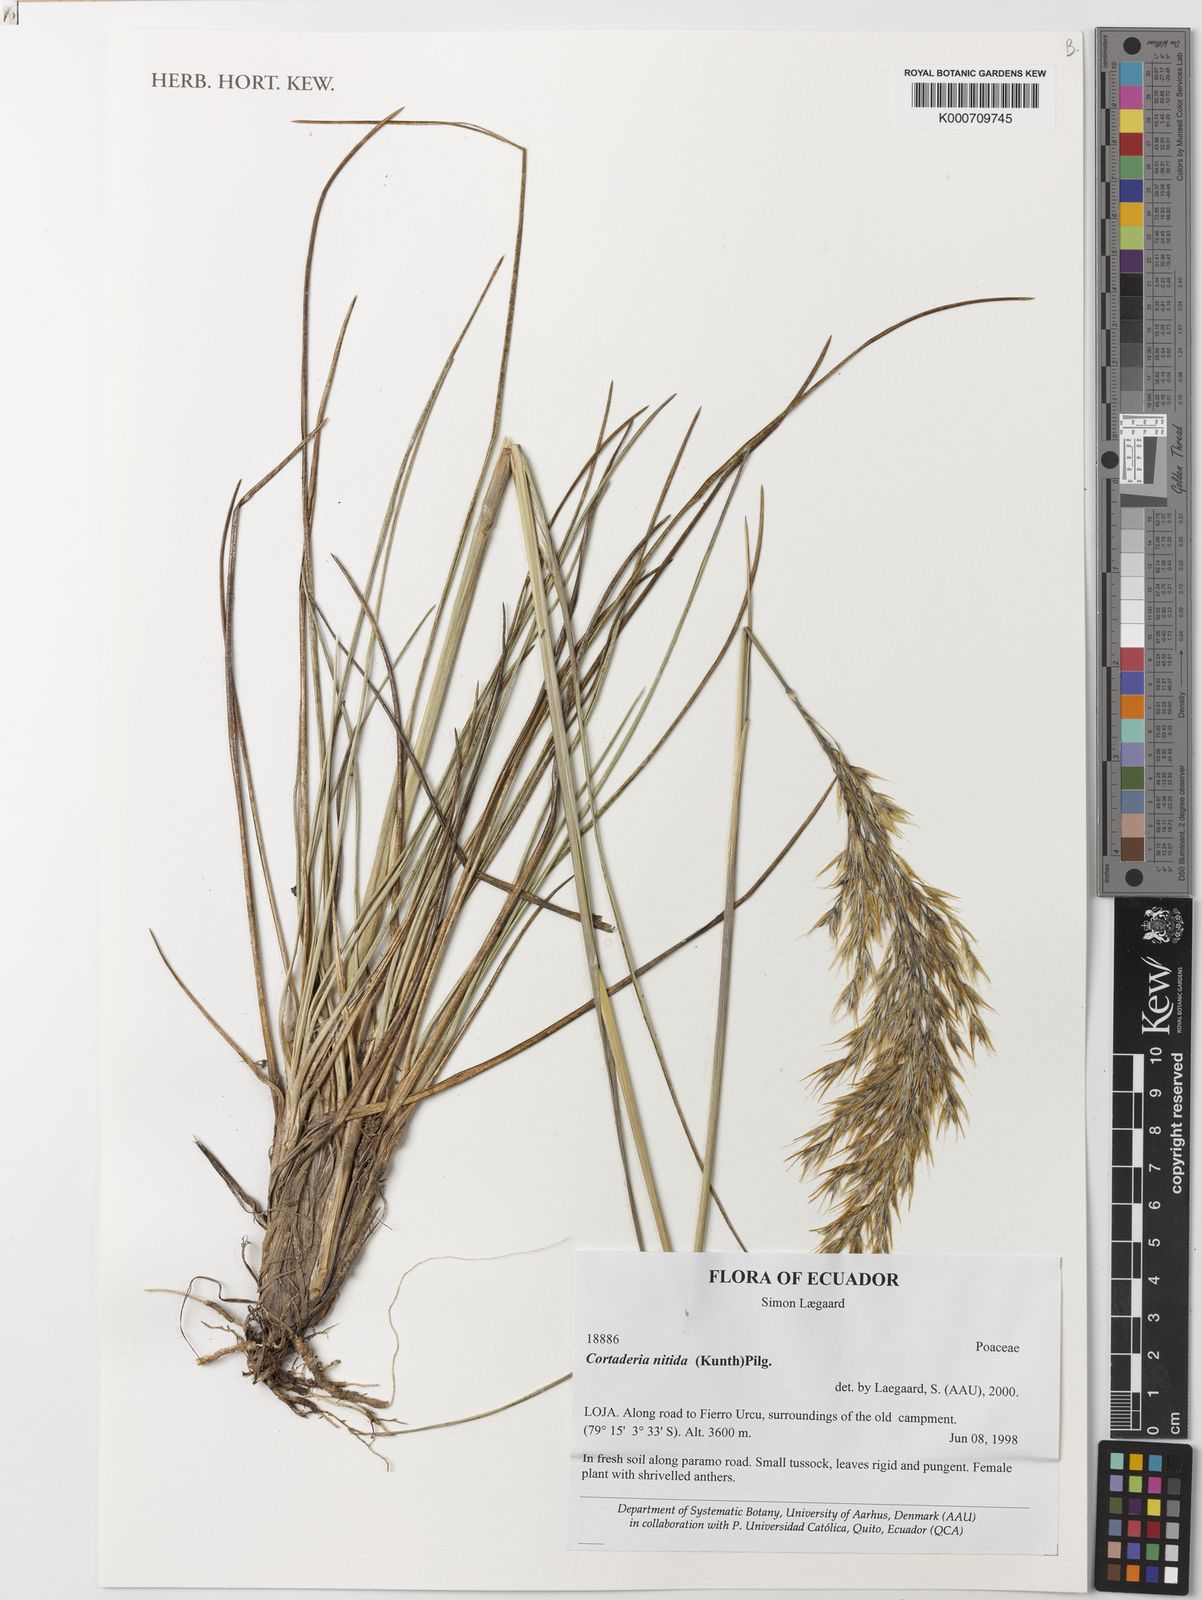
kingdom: Plantae
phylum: Tracheophyta
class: Liliopsida
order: Poales
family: Poaceae
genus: Cortaderia
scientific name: Cortaderia nitida
